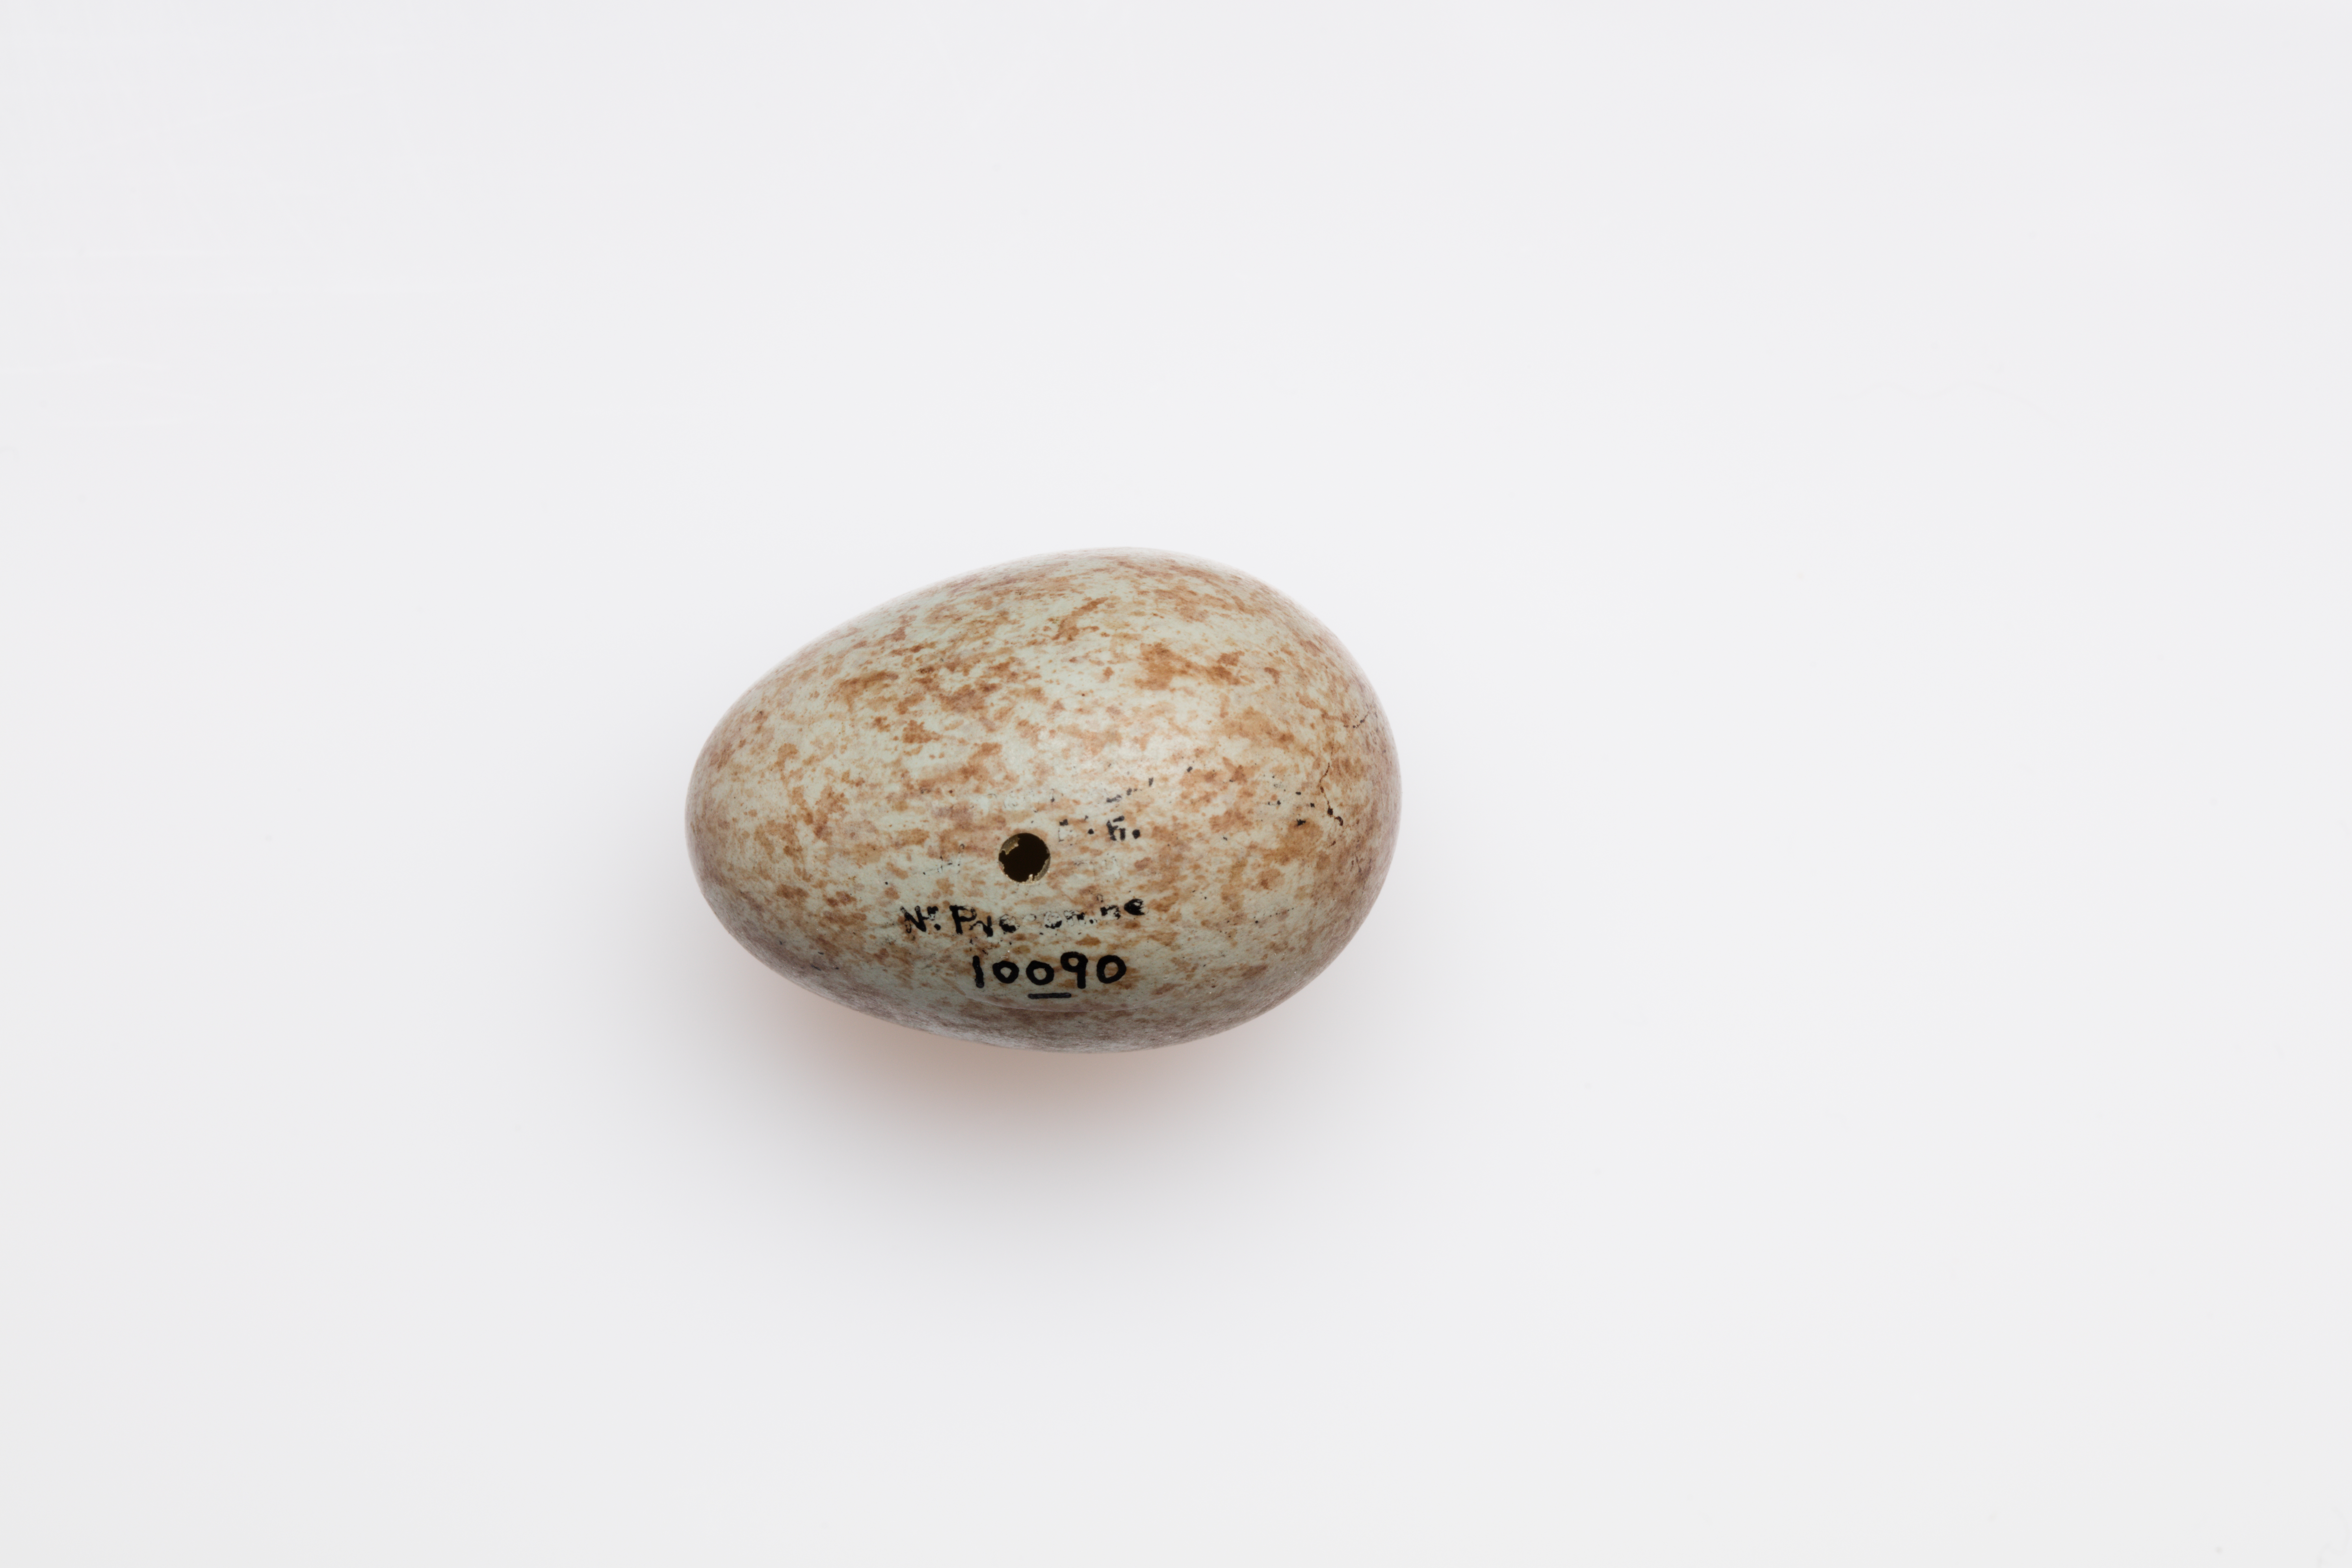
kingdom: Animalia
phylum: Chordata
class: Aves
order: Passeriformes
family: Turdidae
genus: Turdus
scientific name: Turdus merula
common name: Common blackbird
